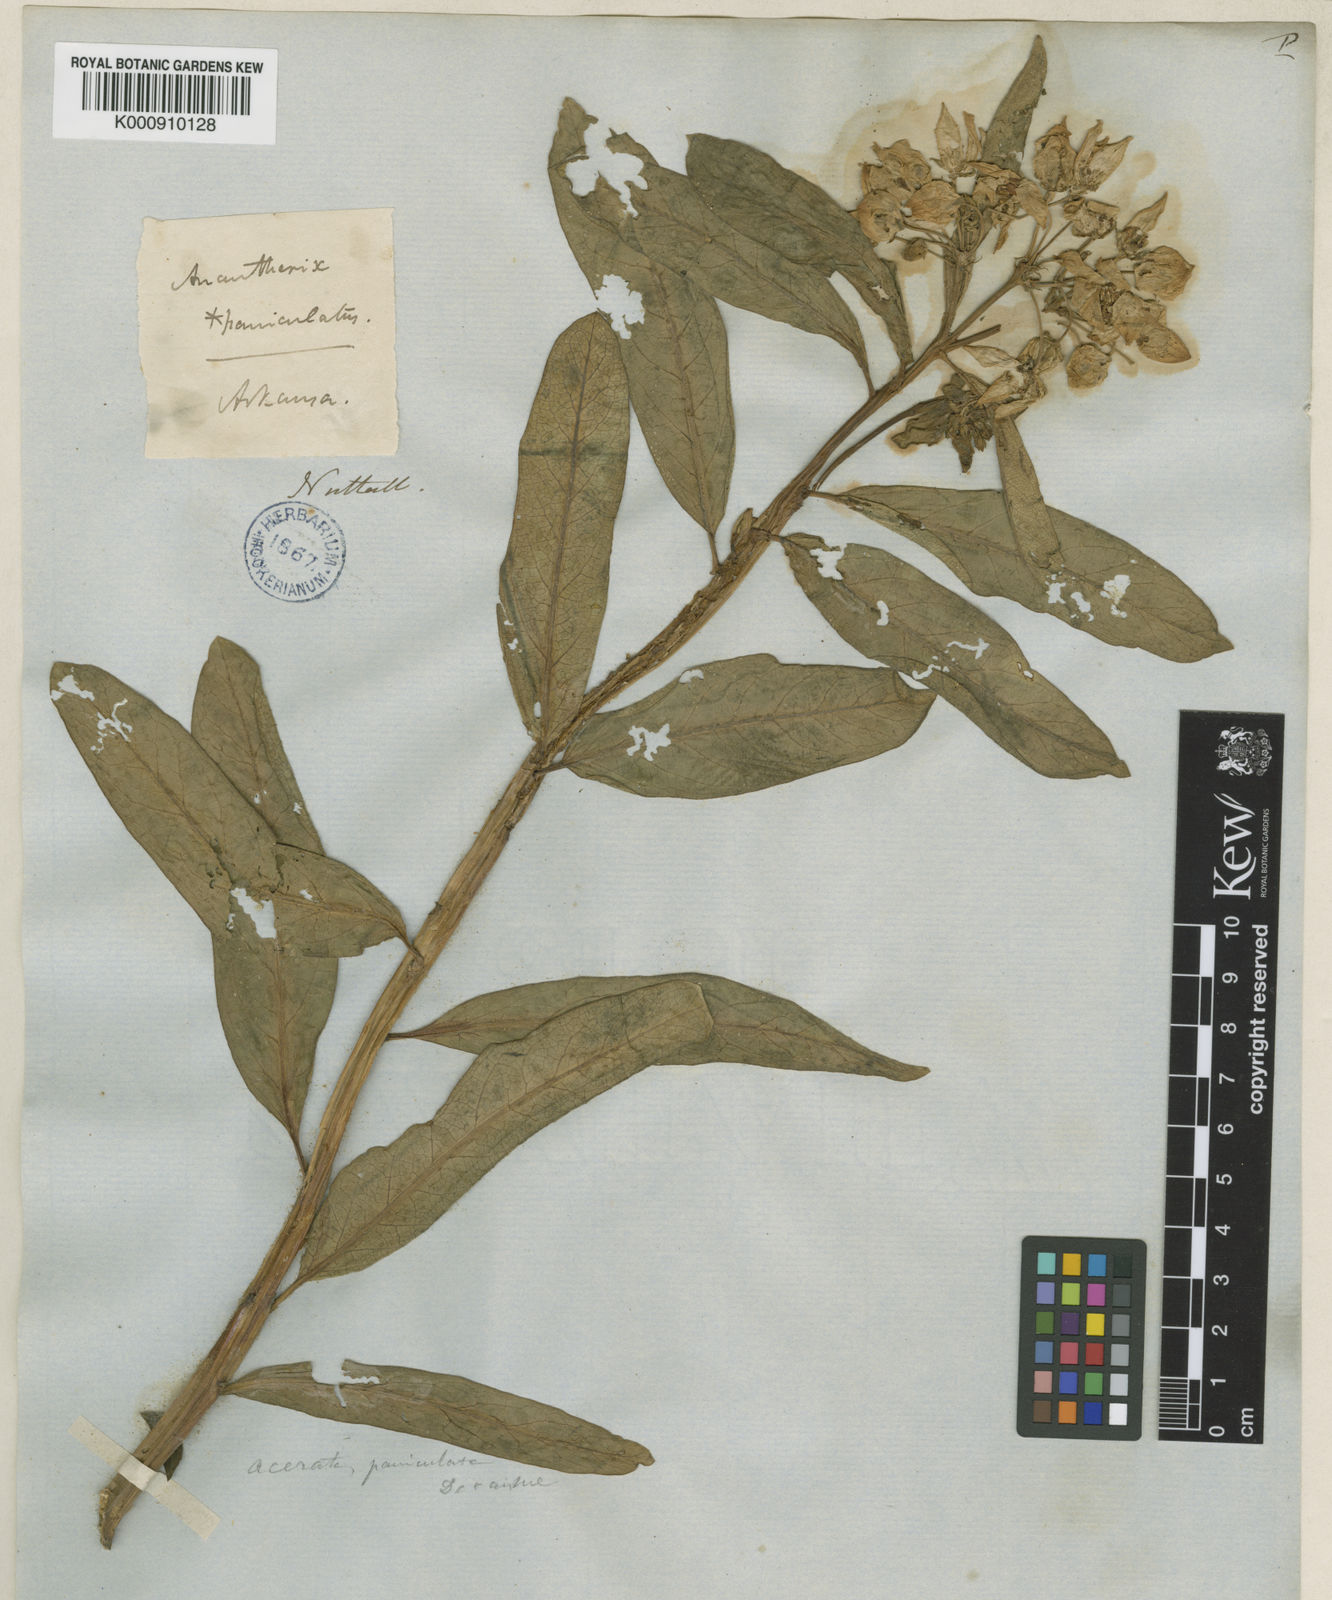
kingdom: Plantae
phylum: Tracheophyta
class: Magnoliopsida
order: Gentianales
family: Apocynaceae
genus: Asclepias
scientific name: Asclepias viridis
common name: Antelope-horns
